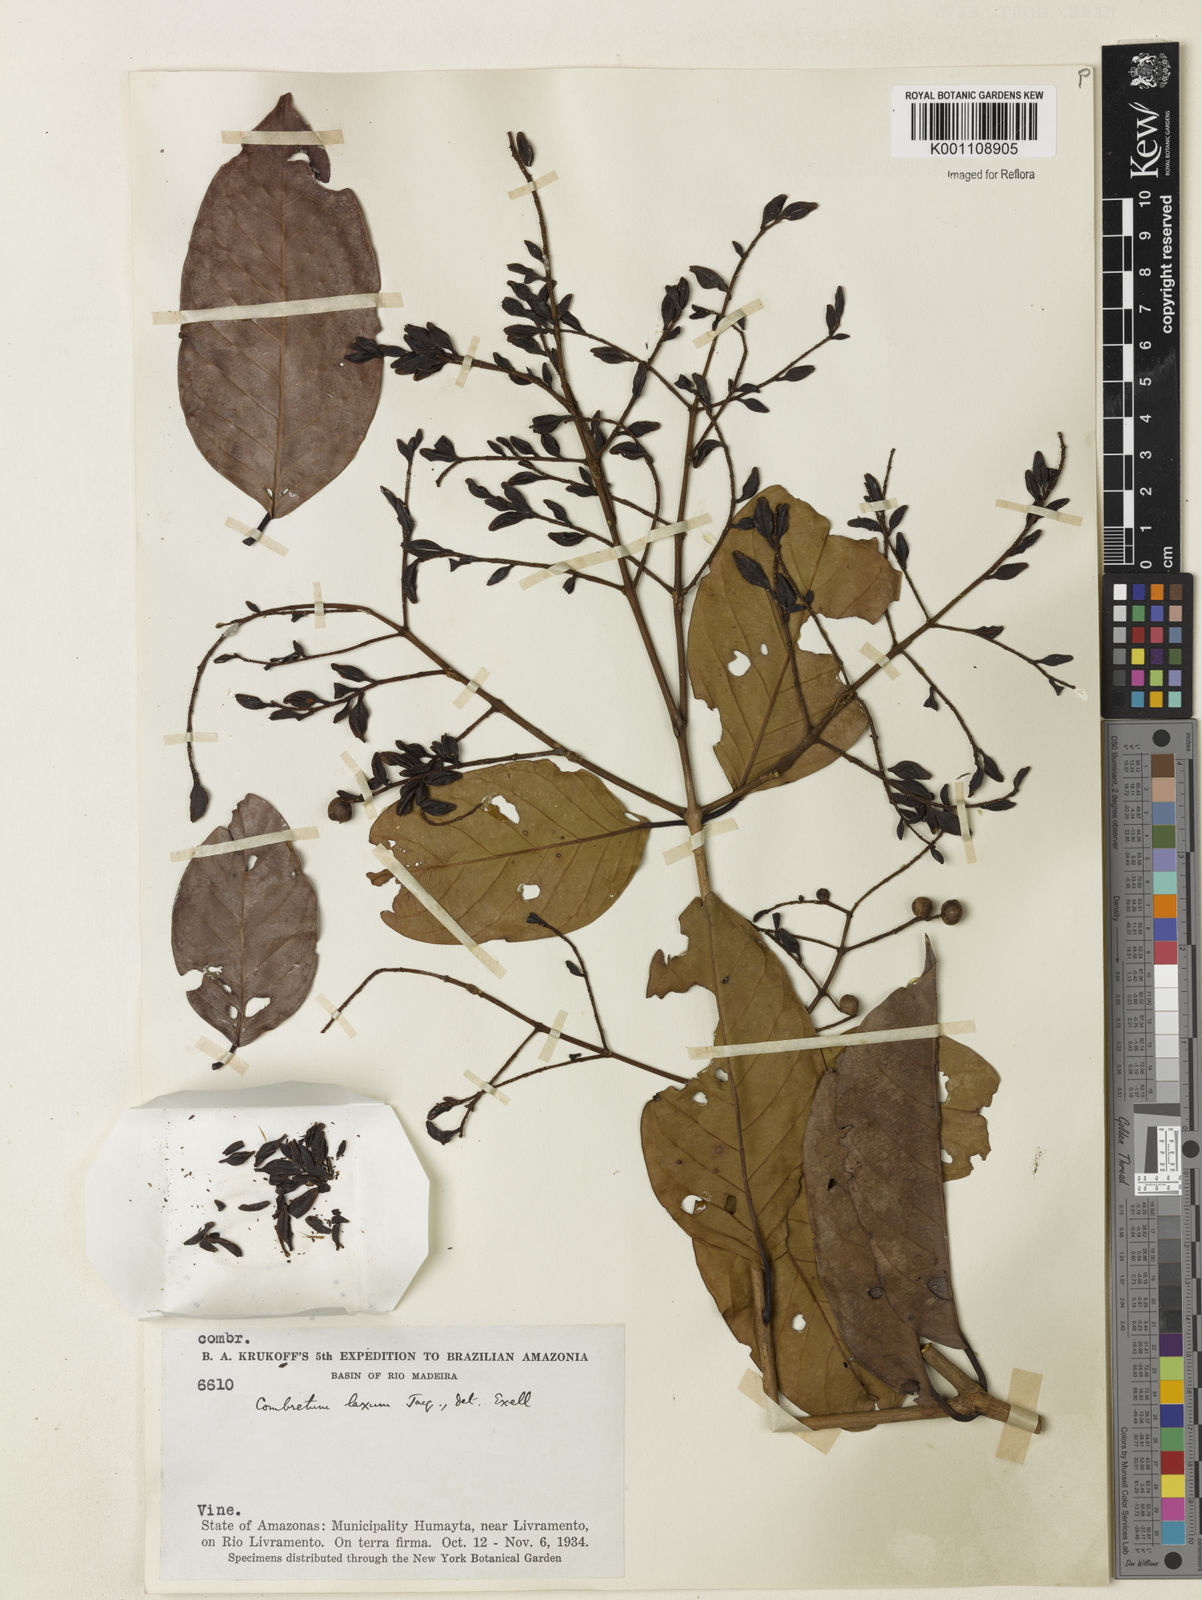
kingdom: Plantae
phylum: Tracheophyta
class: Magnoliopsida
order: Myrtales
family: Combretaceae
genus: Combretum
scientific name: Combretum laxum
